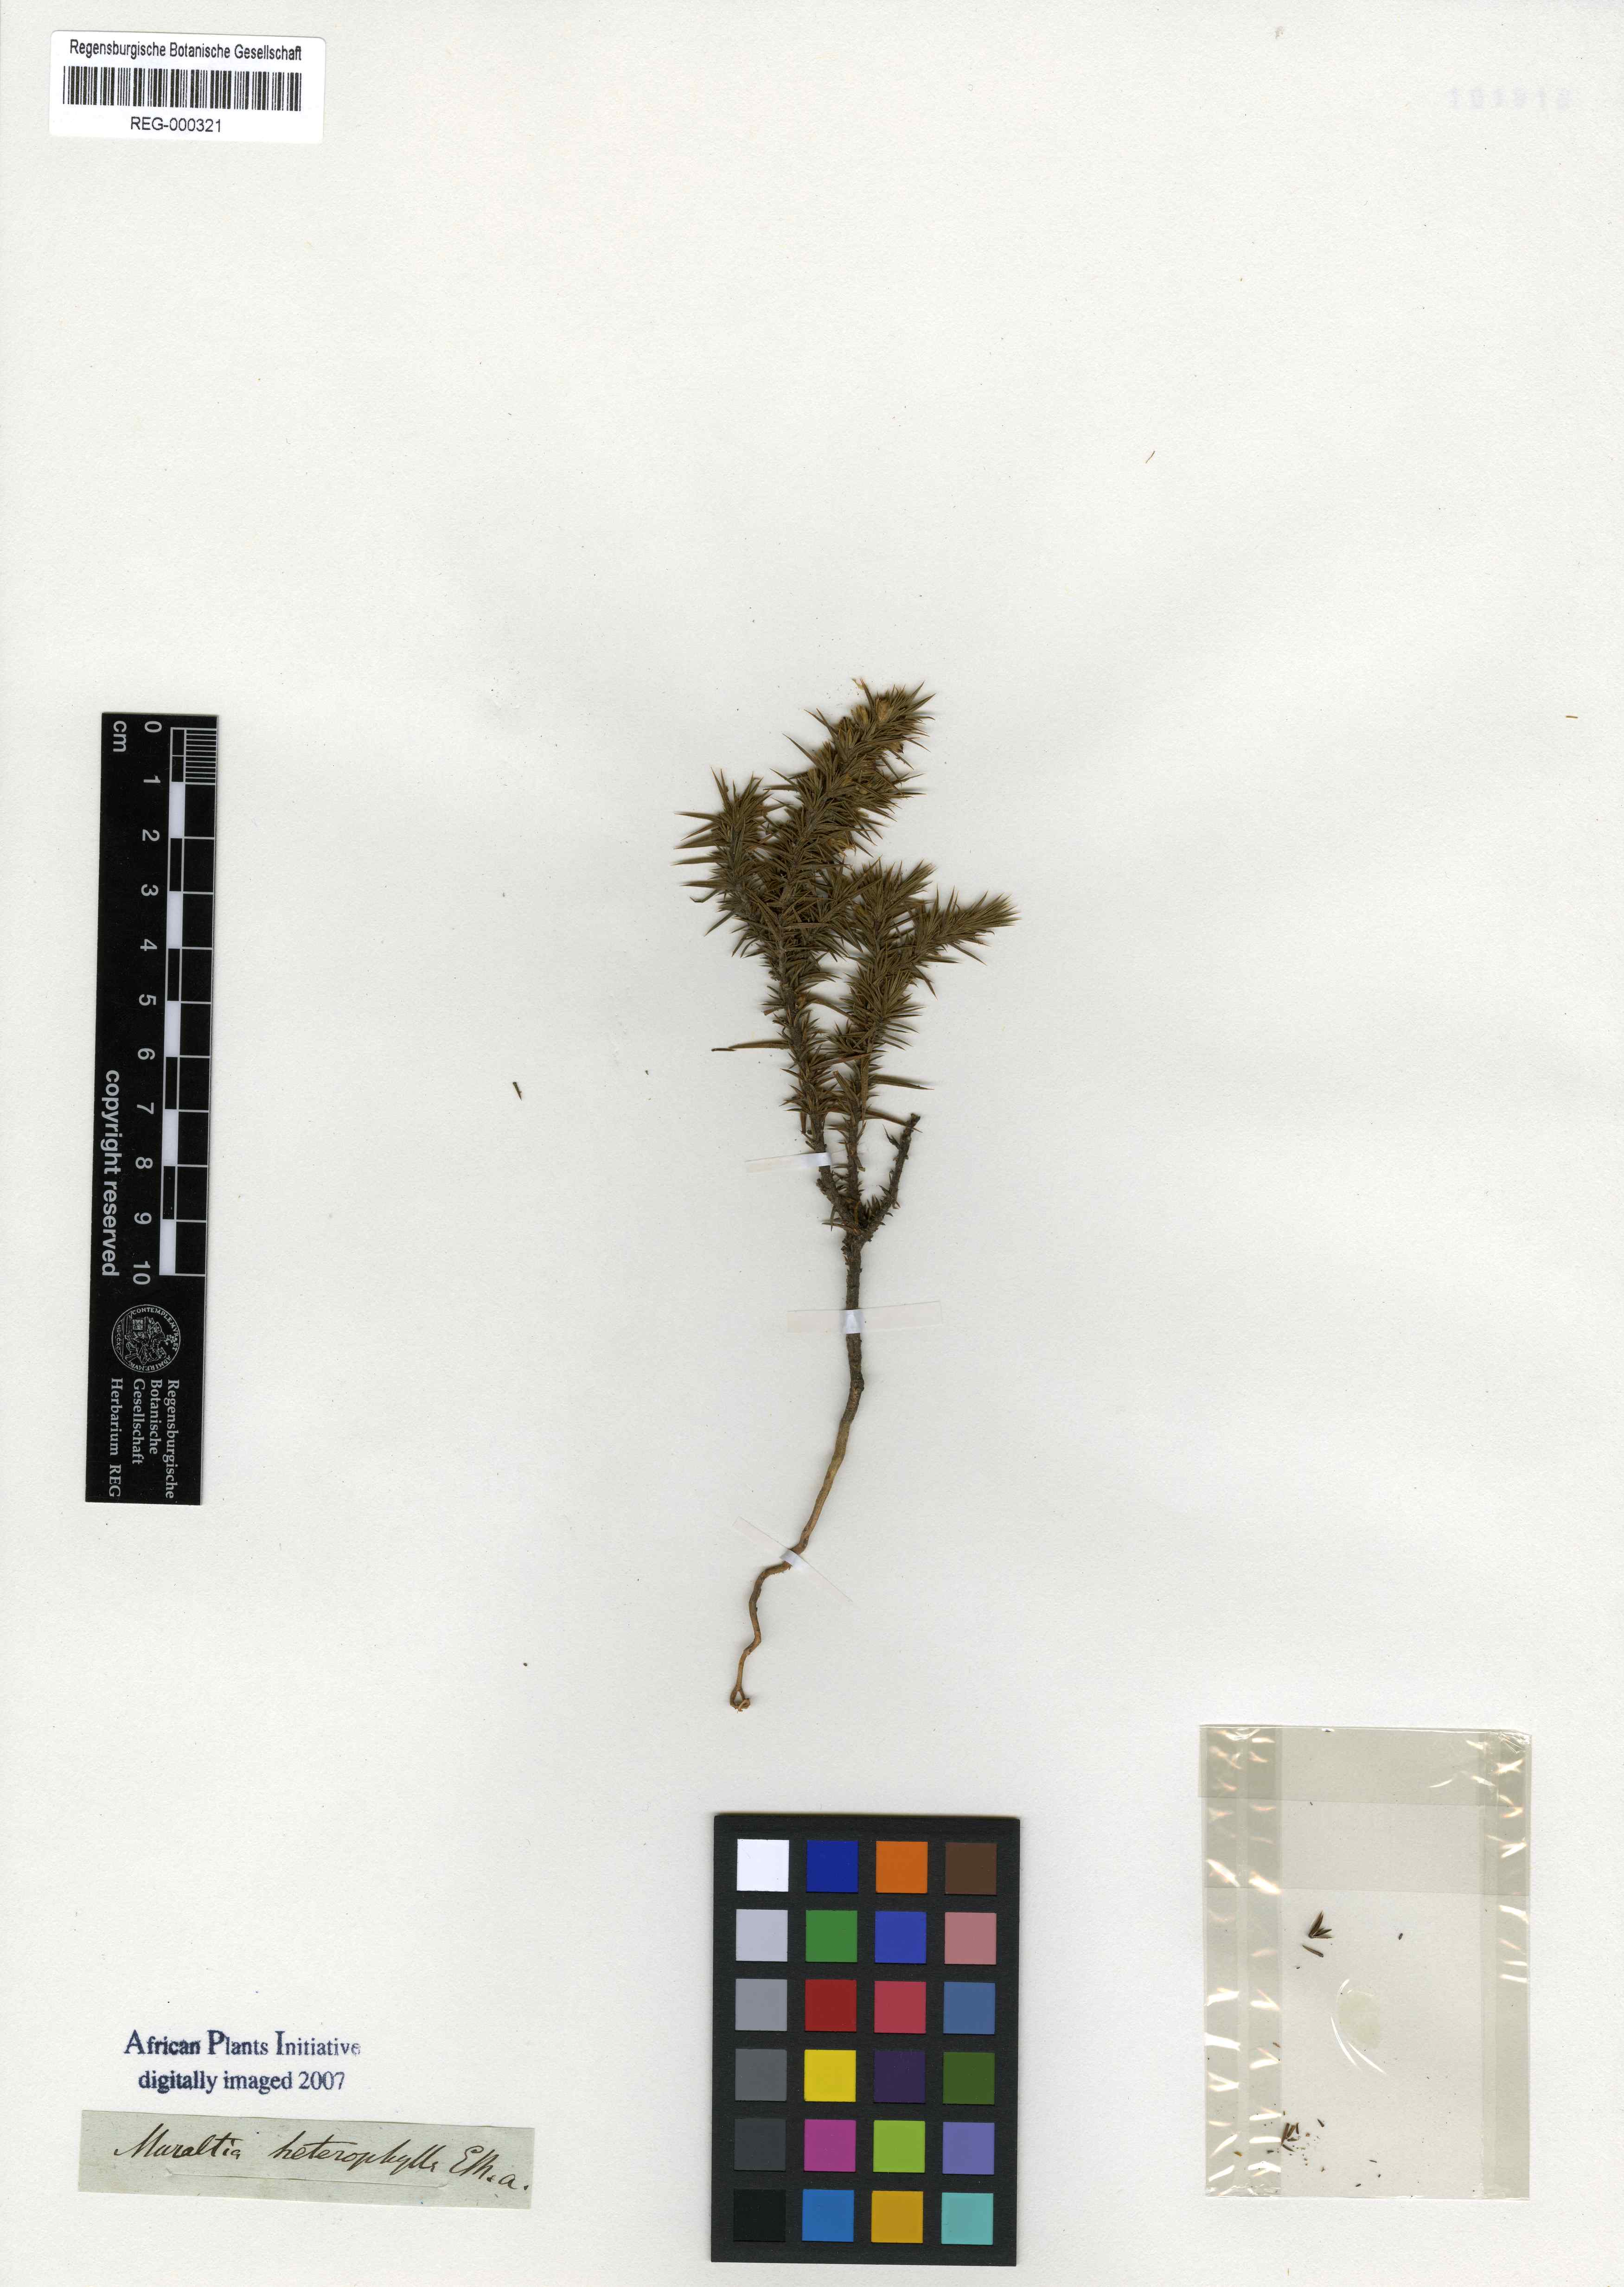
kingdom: Plantae
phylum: Tracheophyta
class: Magnoliopsida
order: Fabales
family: Polygalaceae
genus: Muraltia
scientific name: Muraltia ononidifolia
